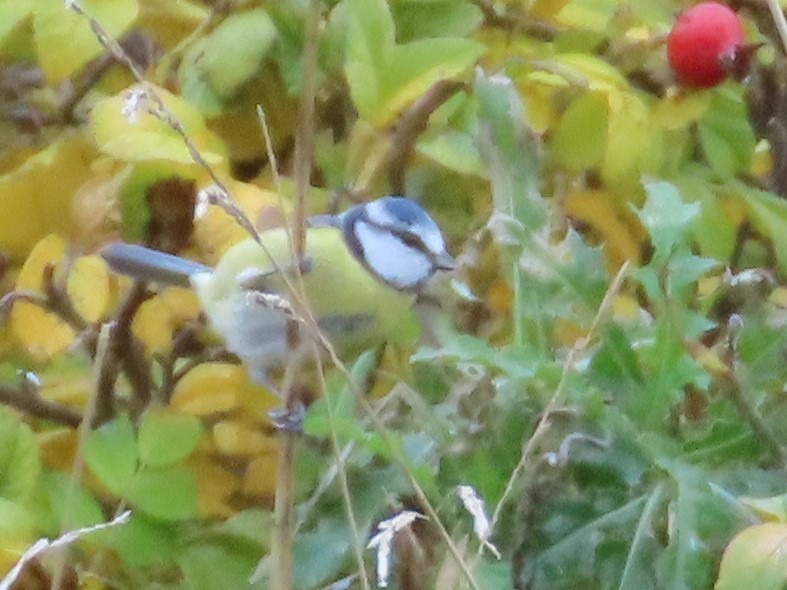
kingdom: Animalia
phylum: Chordata
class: Aves
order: Passeriformes
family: Paridae
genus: Cyanistes
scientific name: Cyanistes caeruleus
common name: Blåmejse
